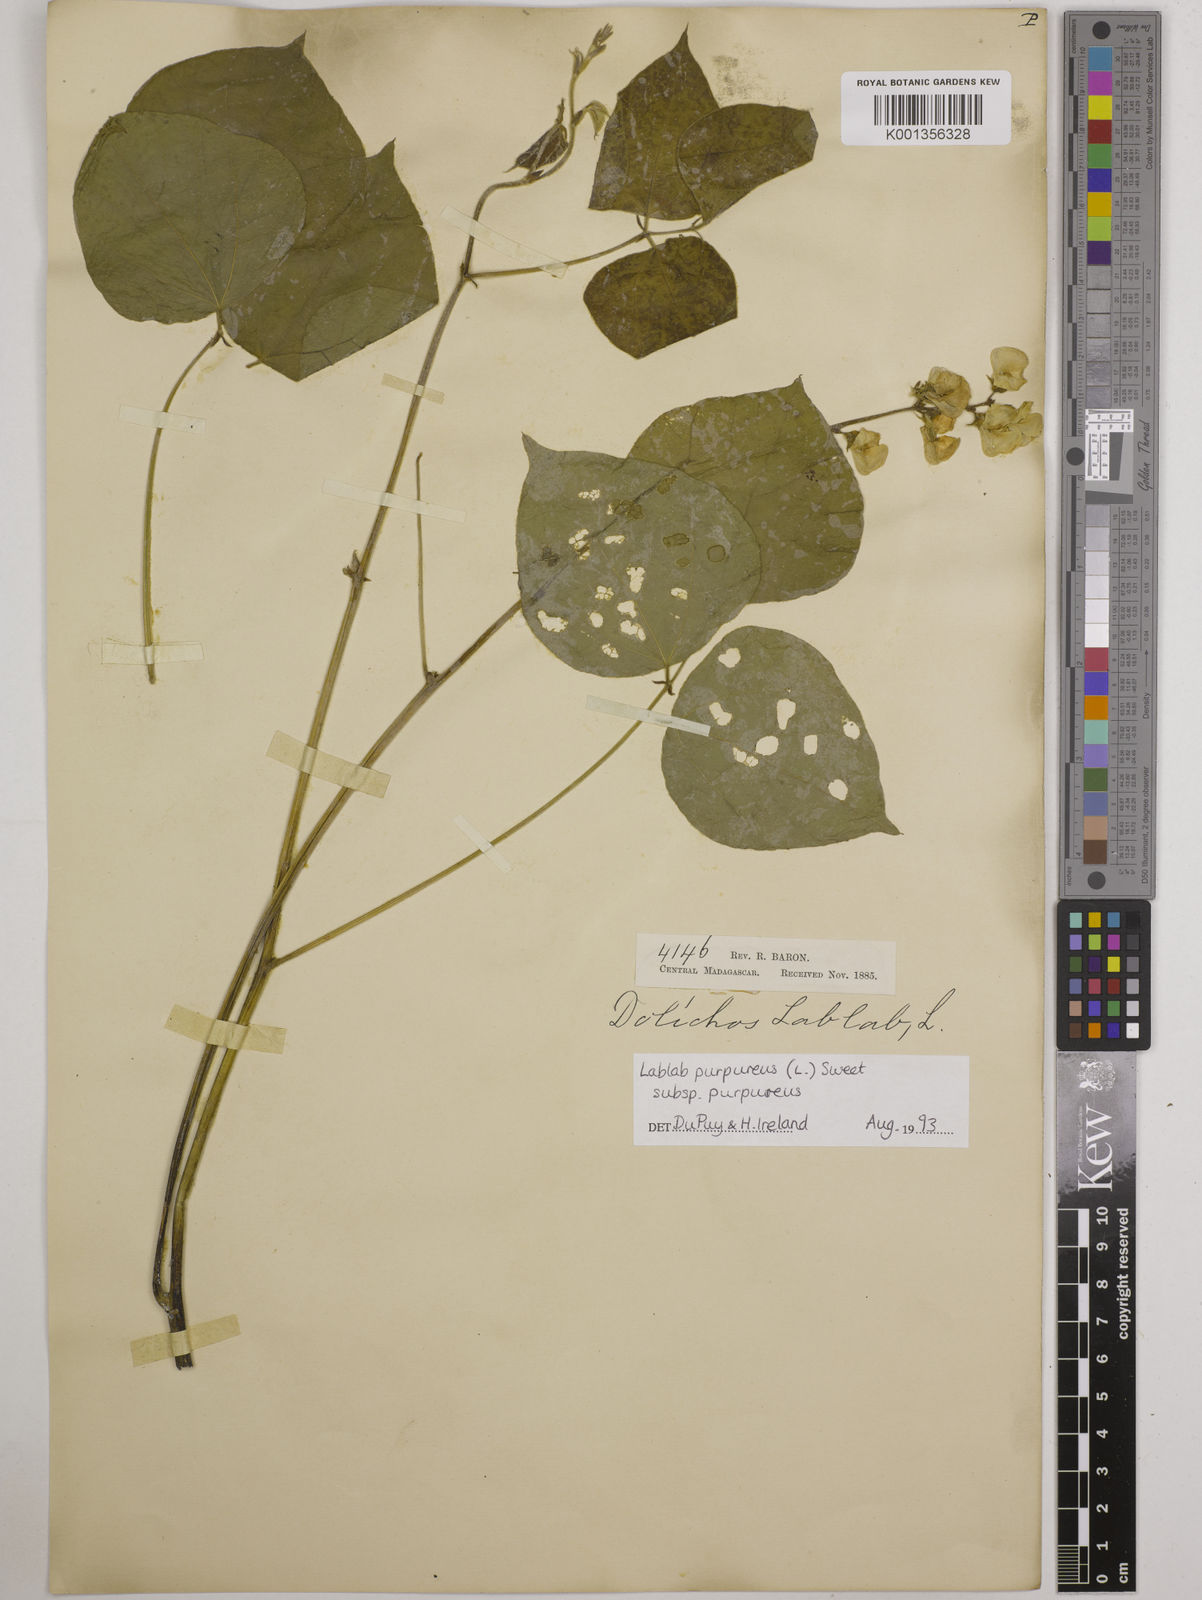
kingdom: Plantae
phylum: Tracheophyta
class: Magnoliopsida
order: Fabales
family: Fabaceae
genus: Lablab
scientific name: Lablab purpureus
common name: Lablab-bean
